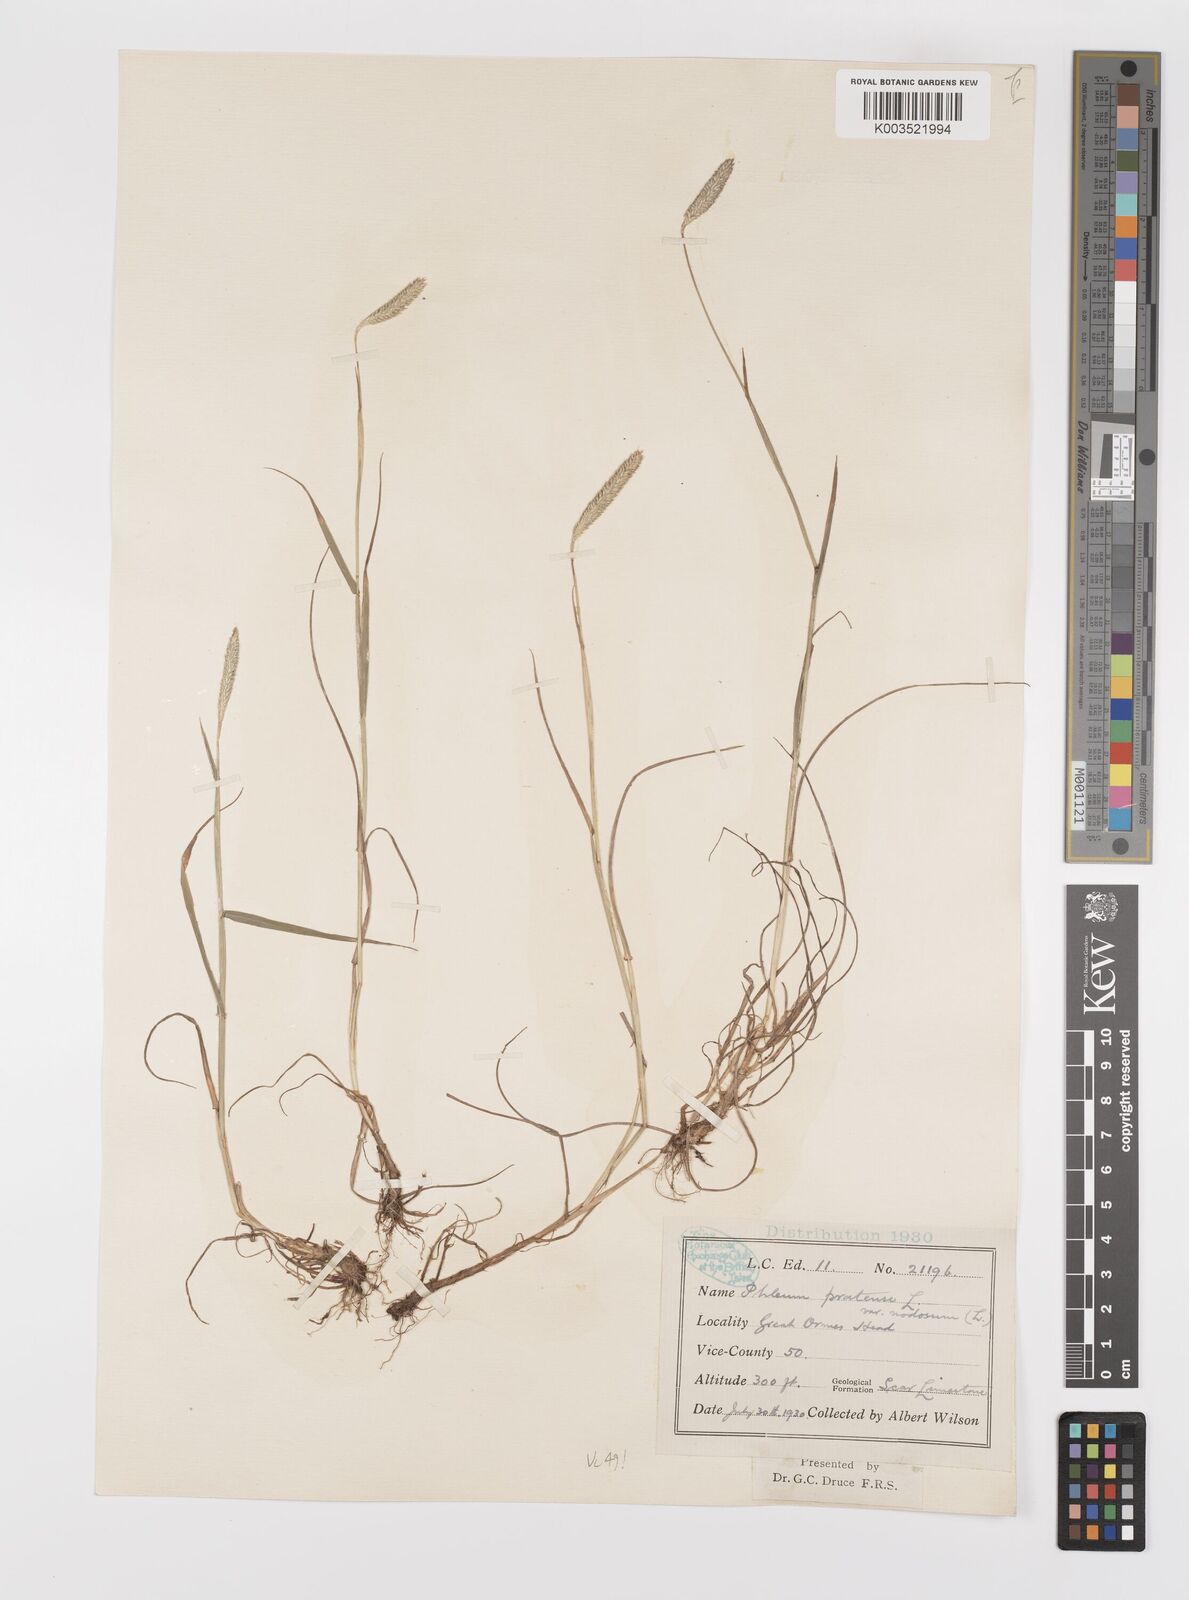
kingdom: Plantae
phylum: Tracheophyta
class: Liliopsida
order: Poales
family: Poaceae
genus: Phleum
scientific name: Phleum bertolonii
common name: Smaller cat's-tail
